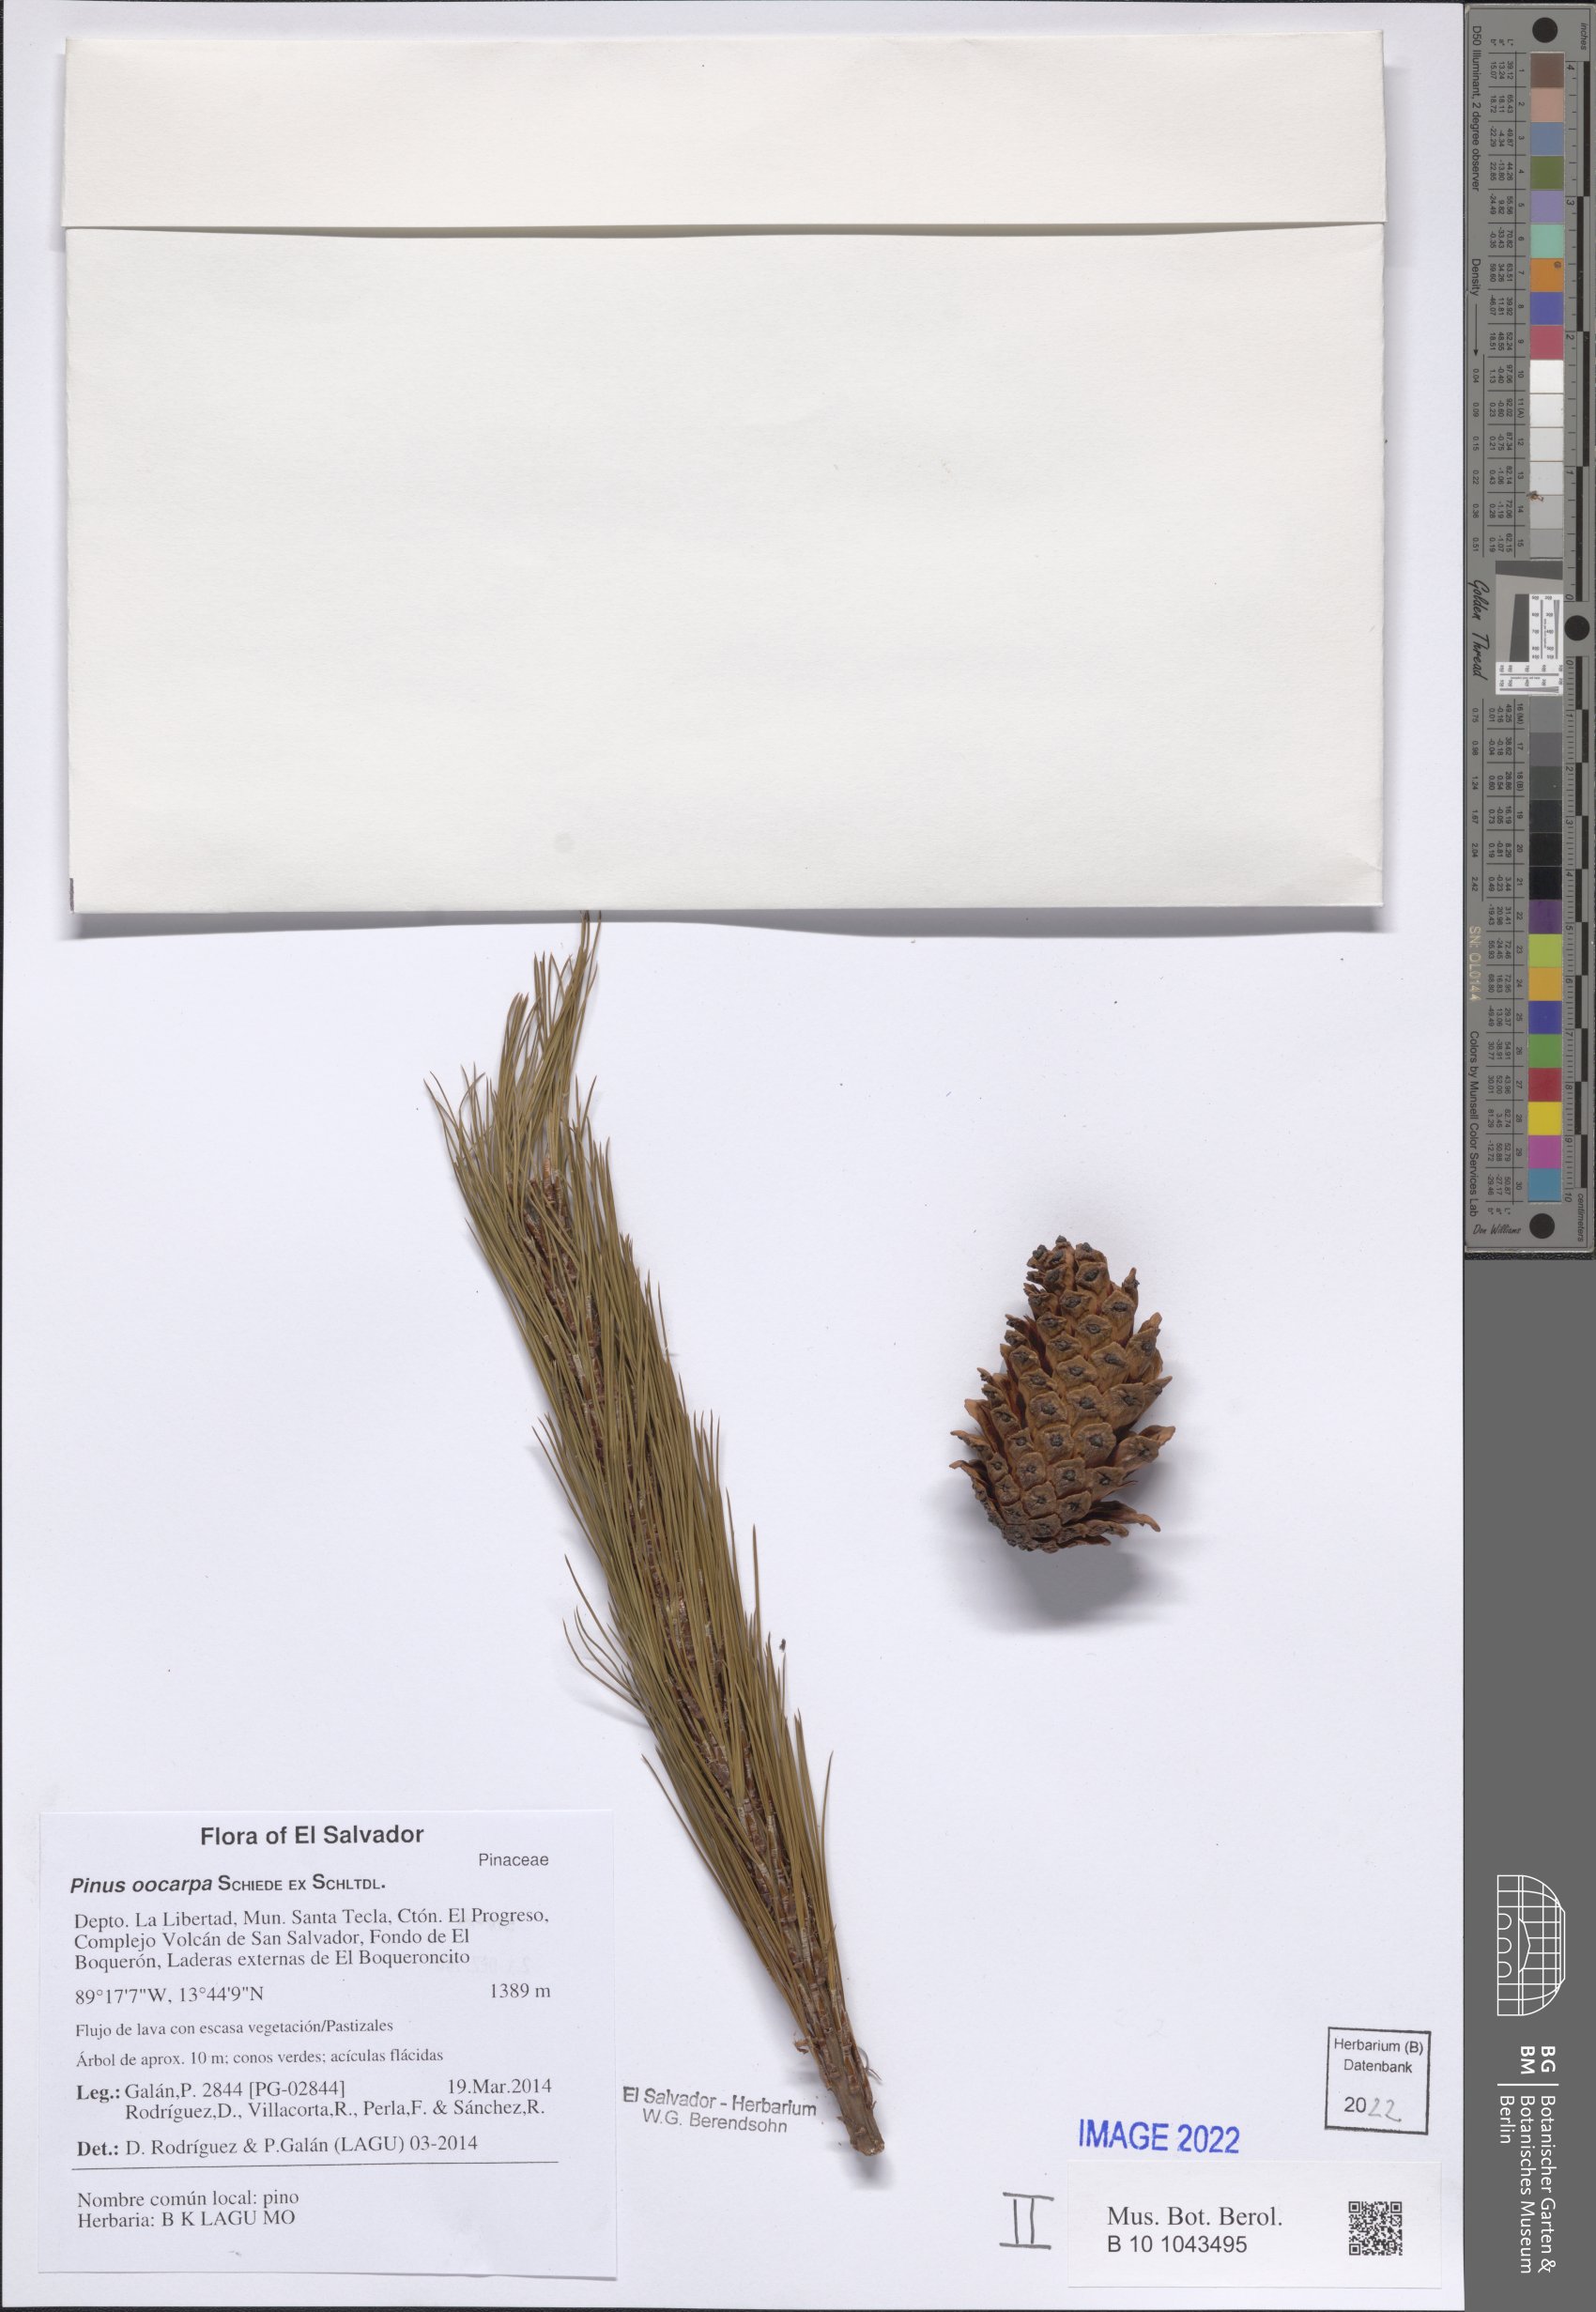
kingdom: Plantae
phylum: Tracheophyta
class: Pinopsida
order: Pinales
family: Pinaceae
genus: Pinus
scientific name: Pinus oocarpa
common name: Egg-cone pine
